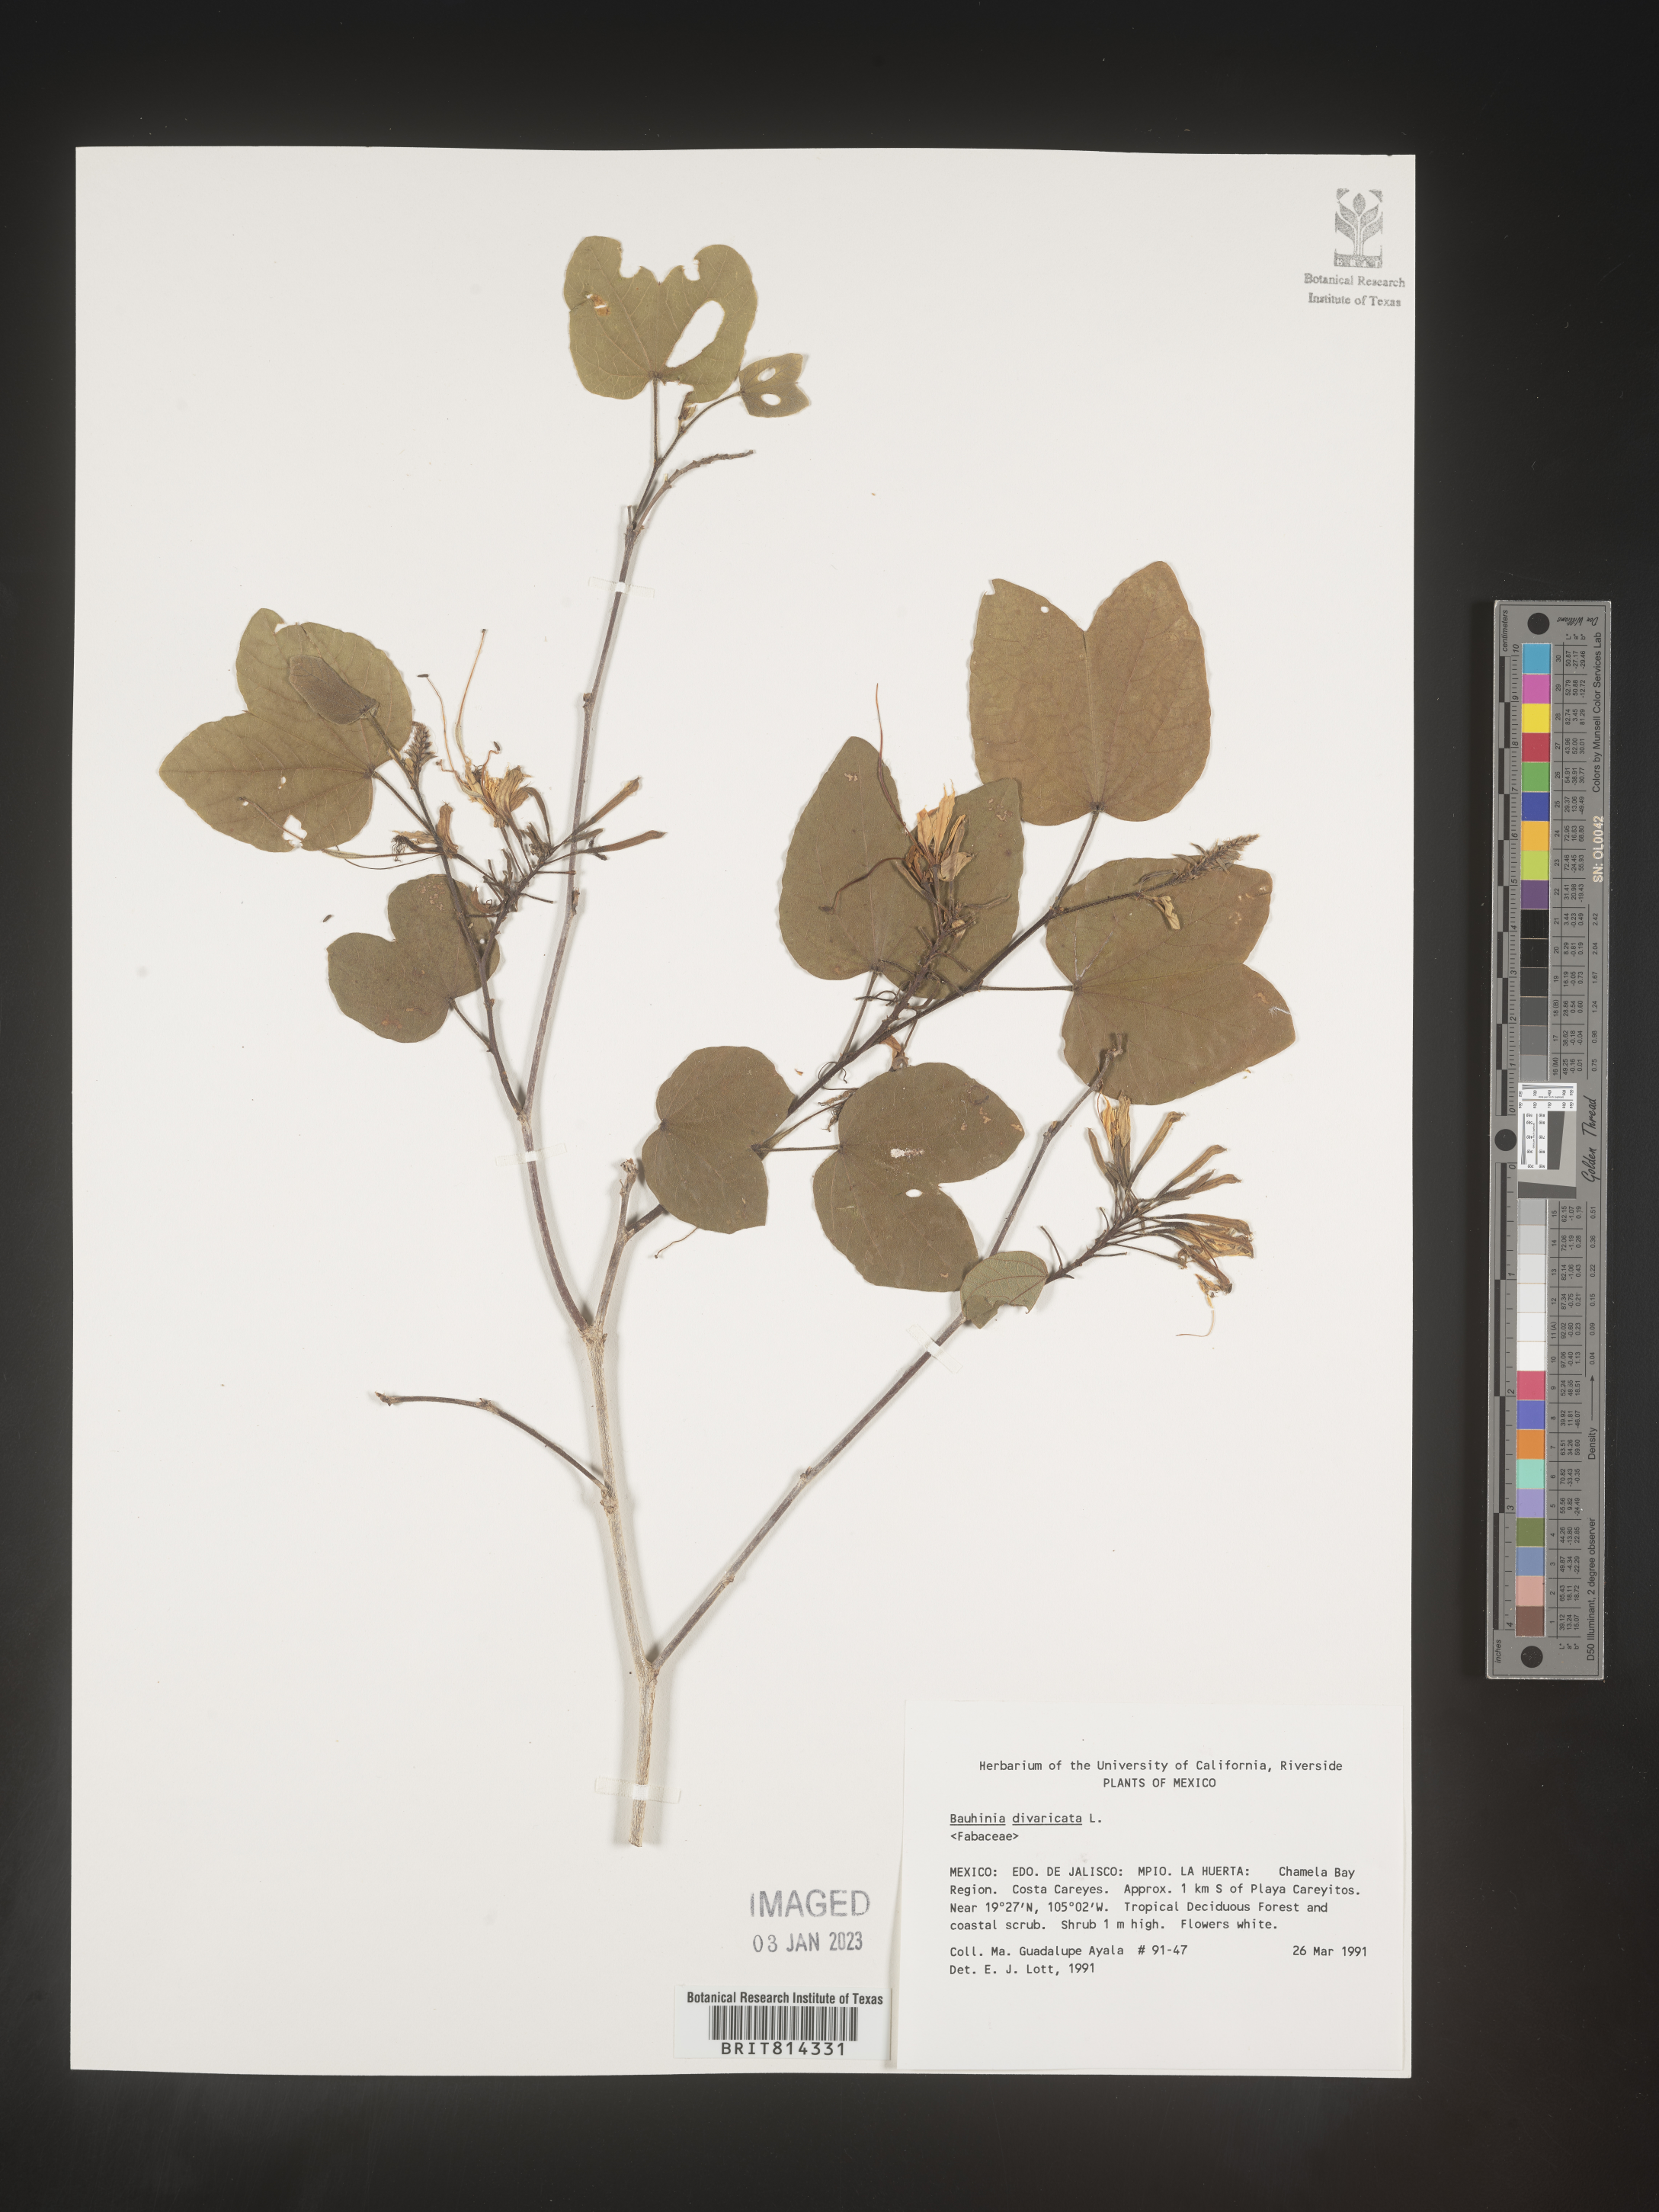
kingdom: Plantae
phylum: Tracheophyta
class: Magnoliopsida
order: Fabales
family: Fabaceae
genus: Bauhinia
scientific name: Bauhinia
